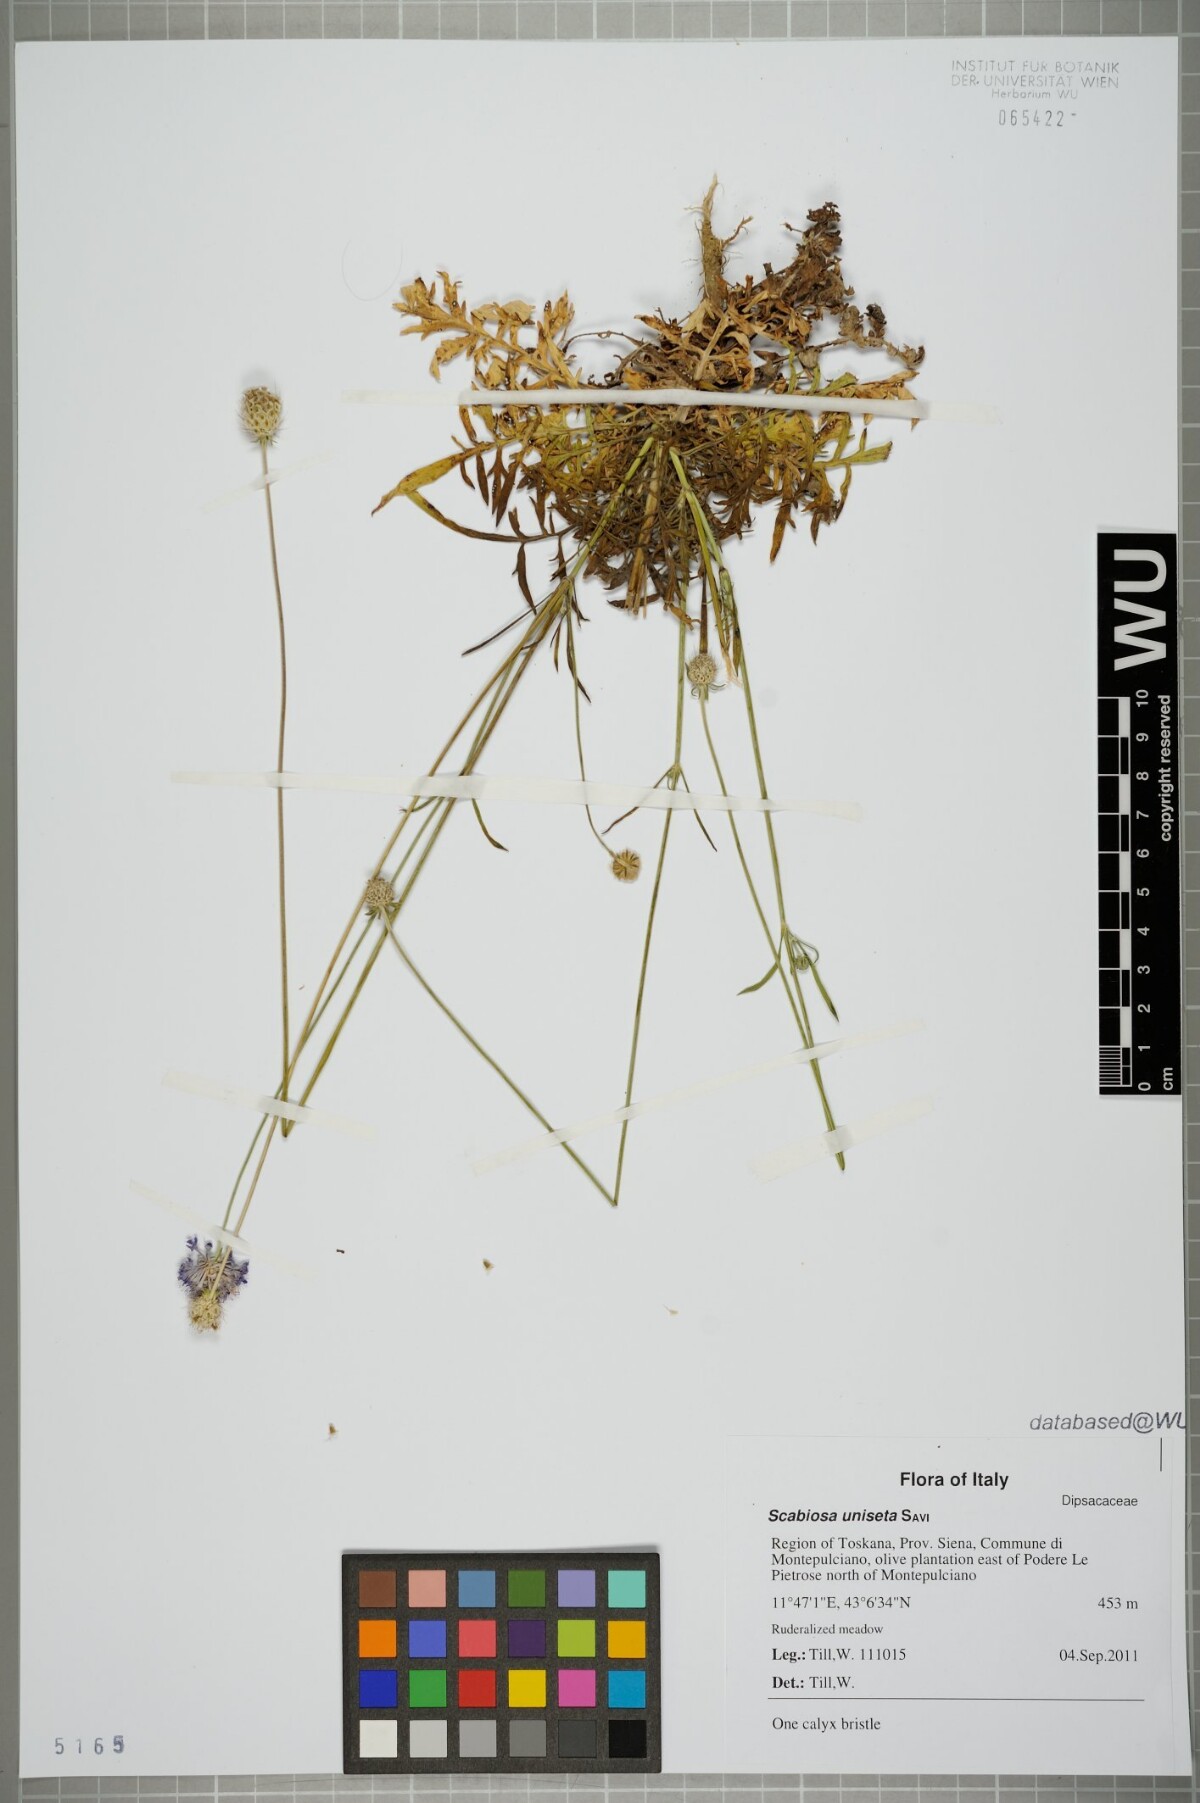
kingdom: Plantae
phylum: Tracheophyta
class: Magnoliopsida
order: Dipsacales
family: Caprifoliaceae
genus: Scabiosa
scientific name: Scabiosa columbaria
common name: Small scabious
